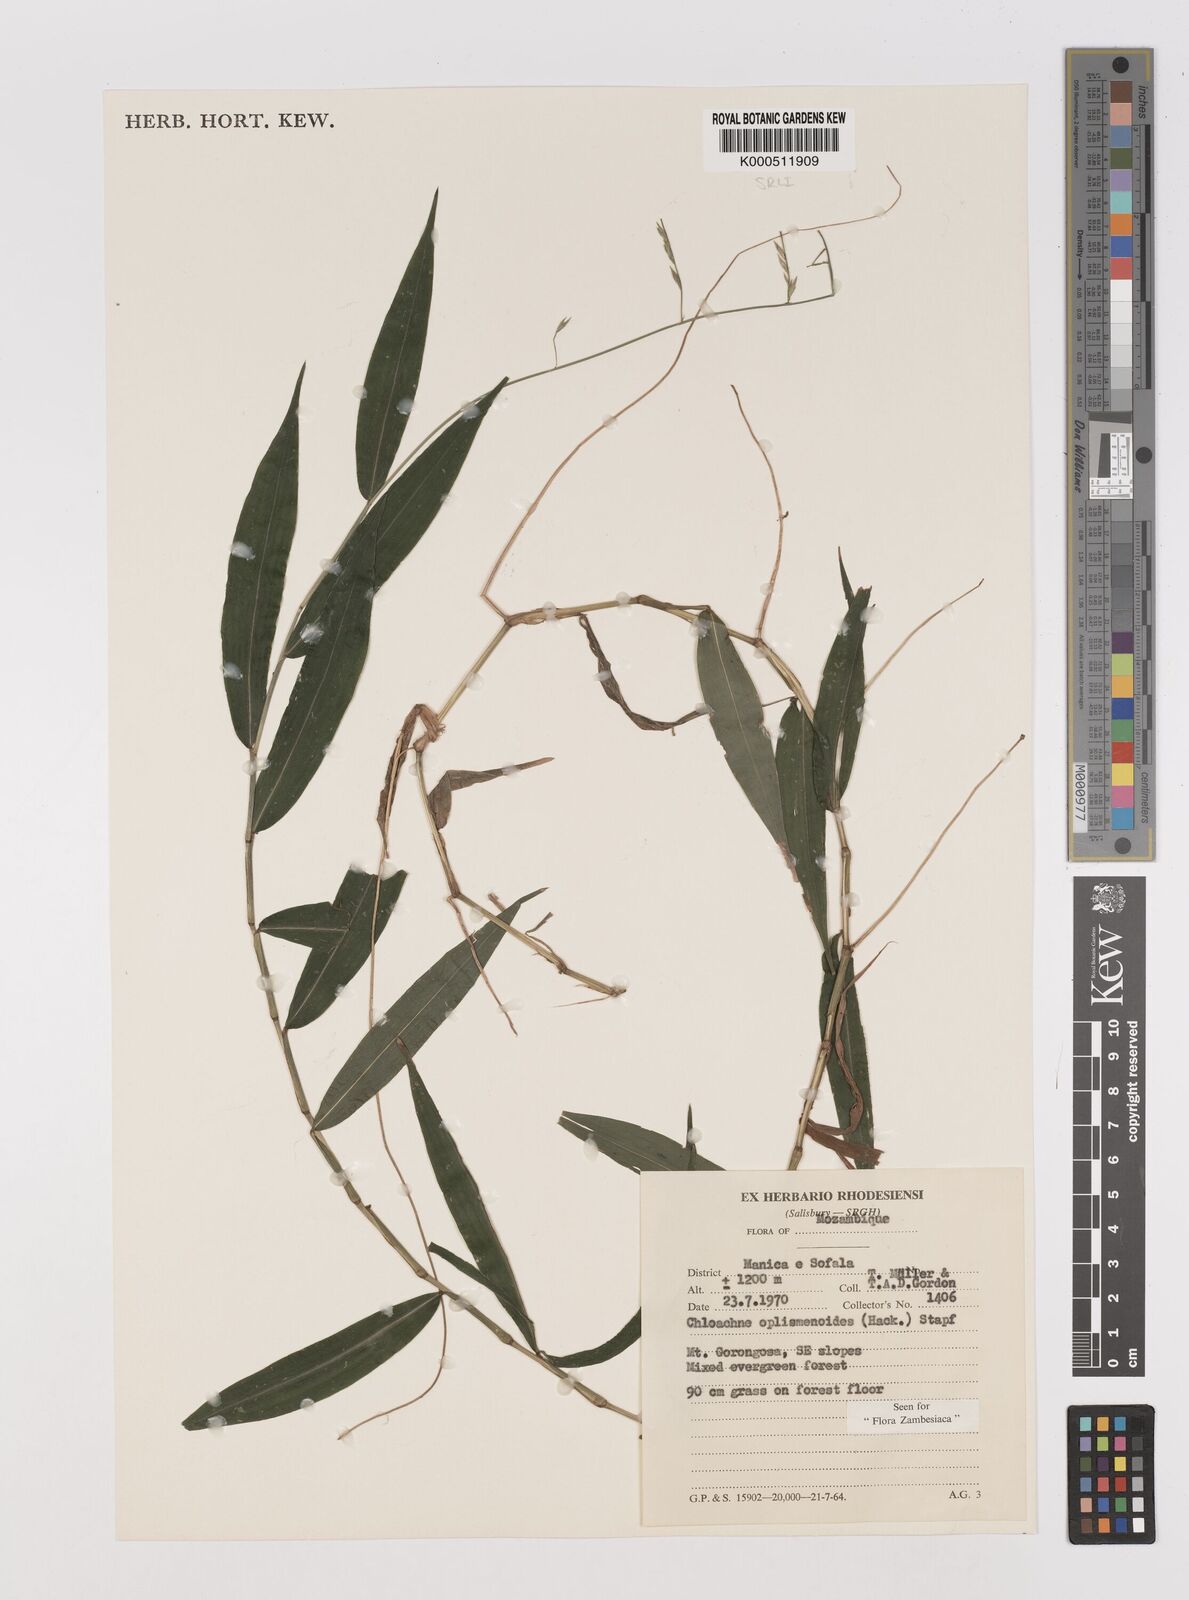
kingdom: Plantae
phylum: Tracheophyta
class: Liliopsida
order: Poales
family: Poaceae
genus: Poecilostachys
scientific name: Poecilostachys oplismenoides
